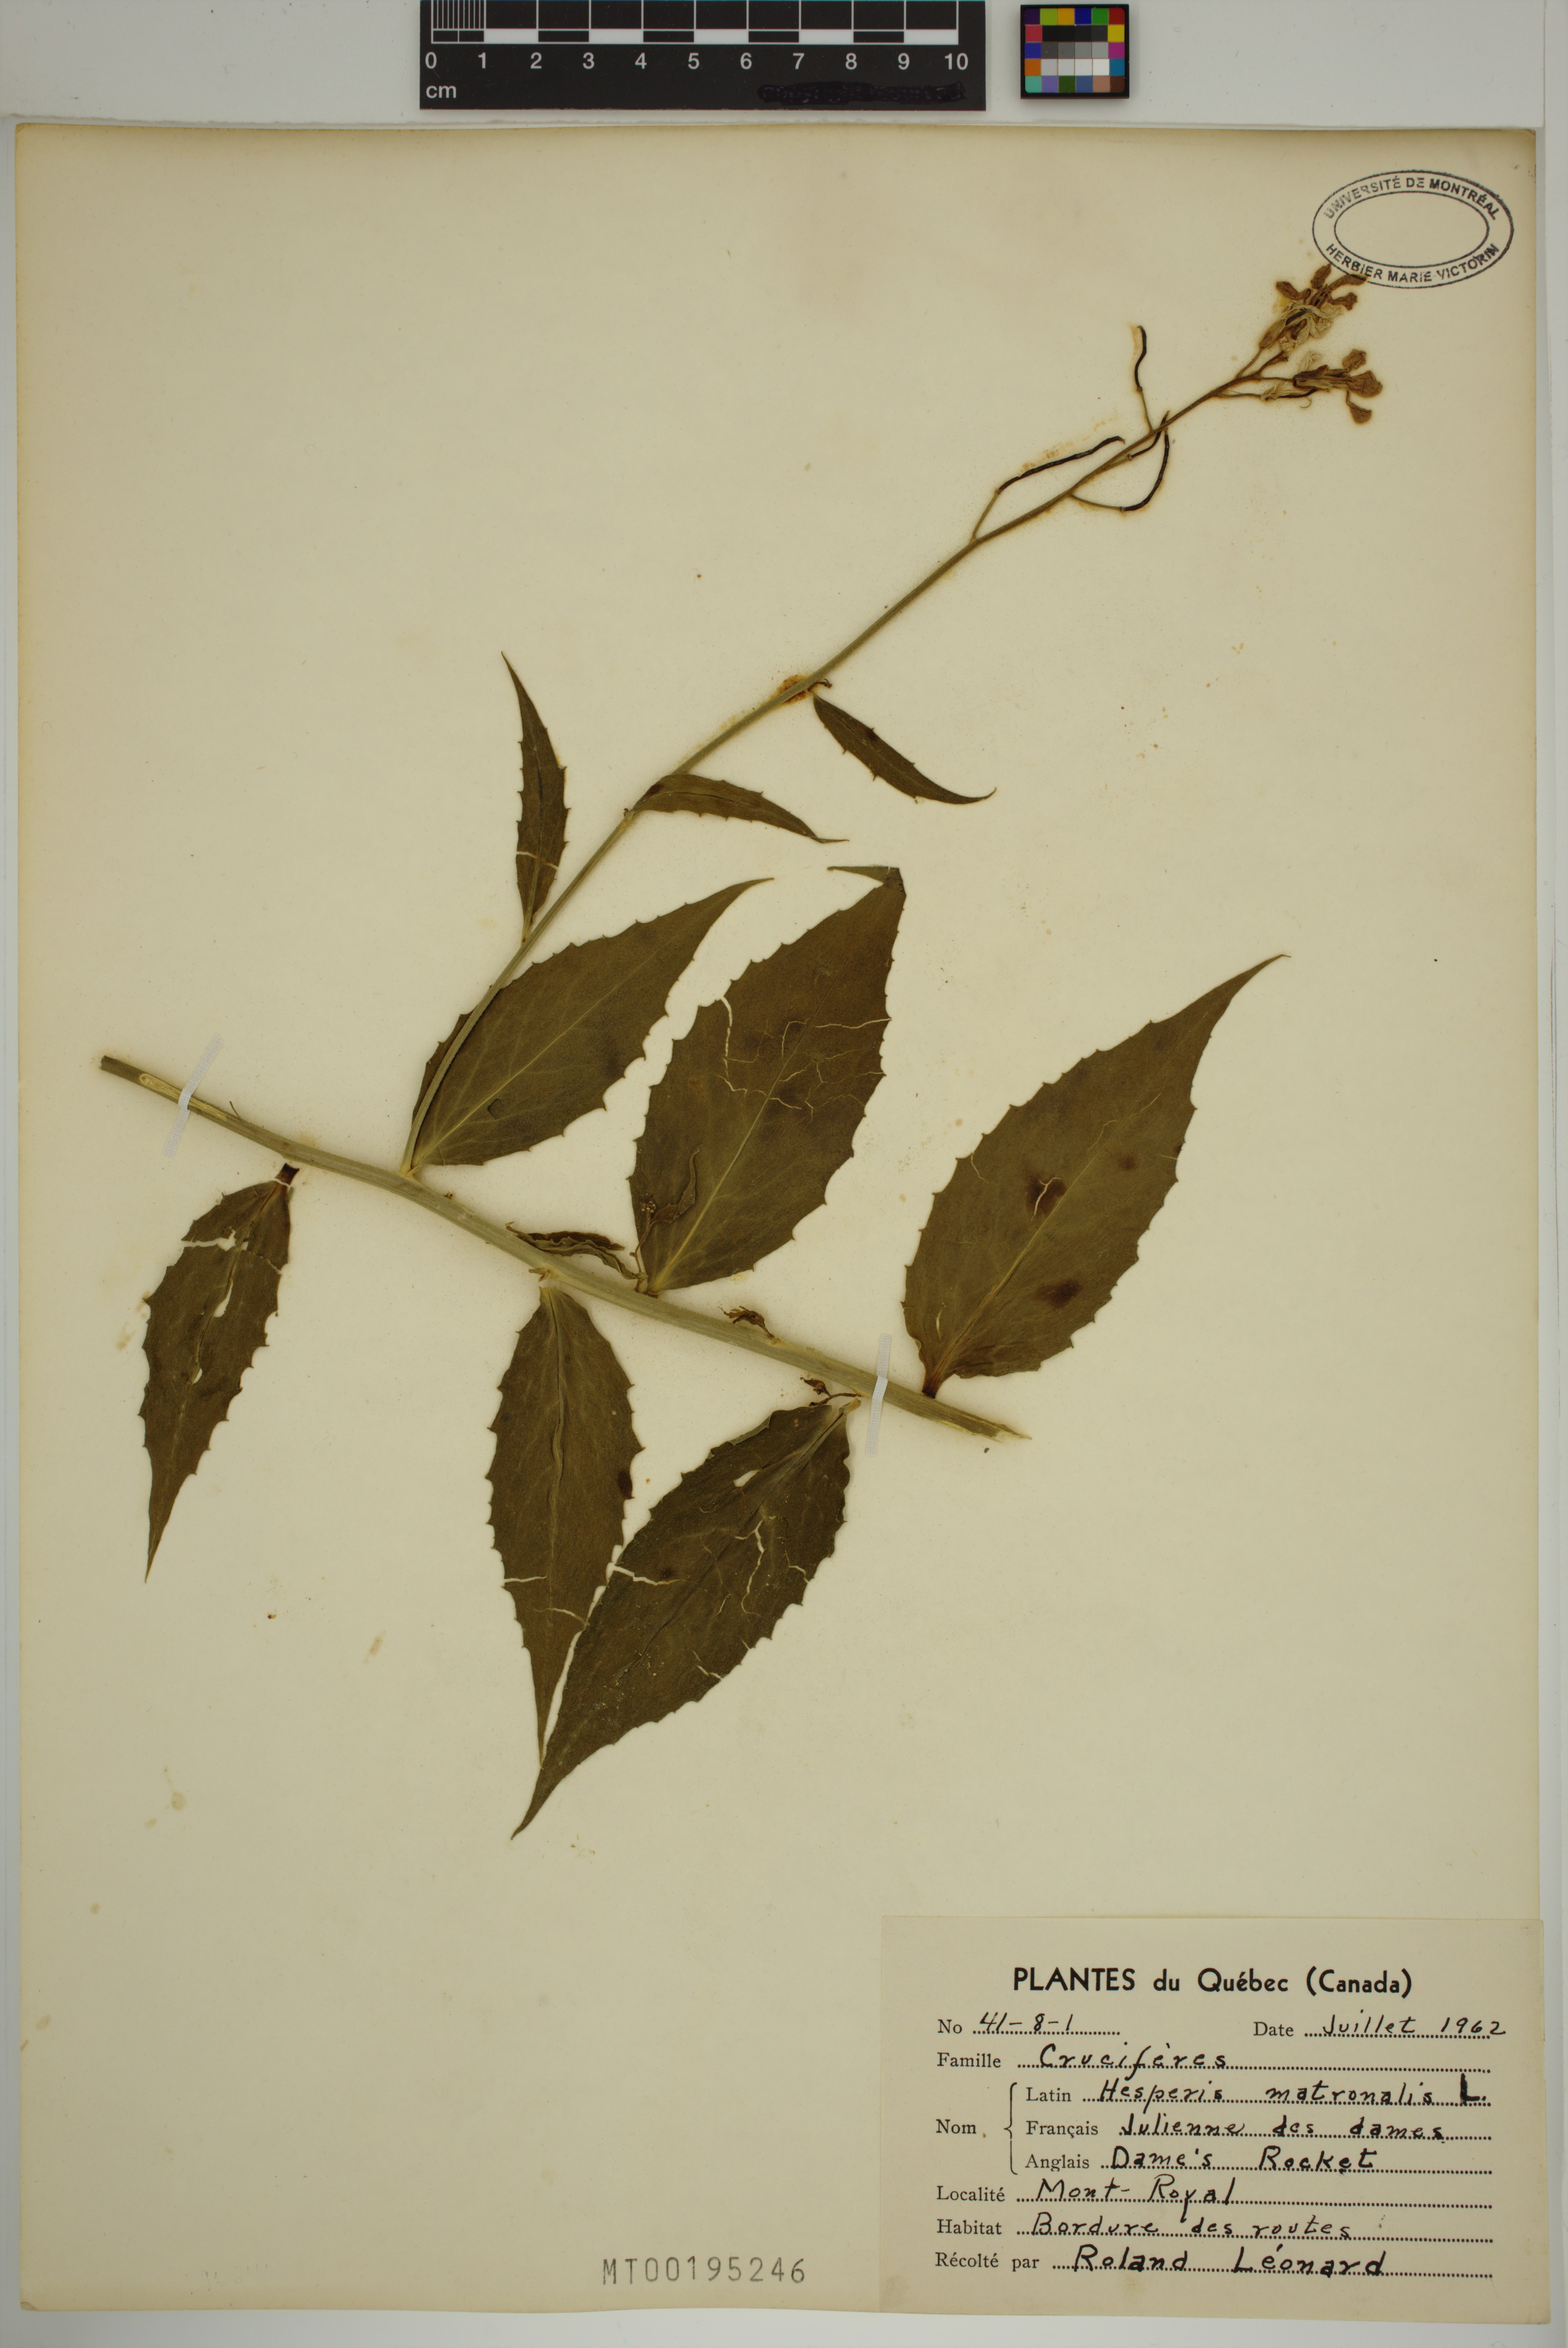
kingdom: Plantae
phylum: Tracheophyta
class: Magnoliopsida
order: Brassicales
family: Brassicaceae
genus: Hesperis
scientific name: Hesperis matronalis
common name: Dame's-violet
